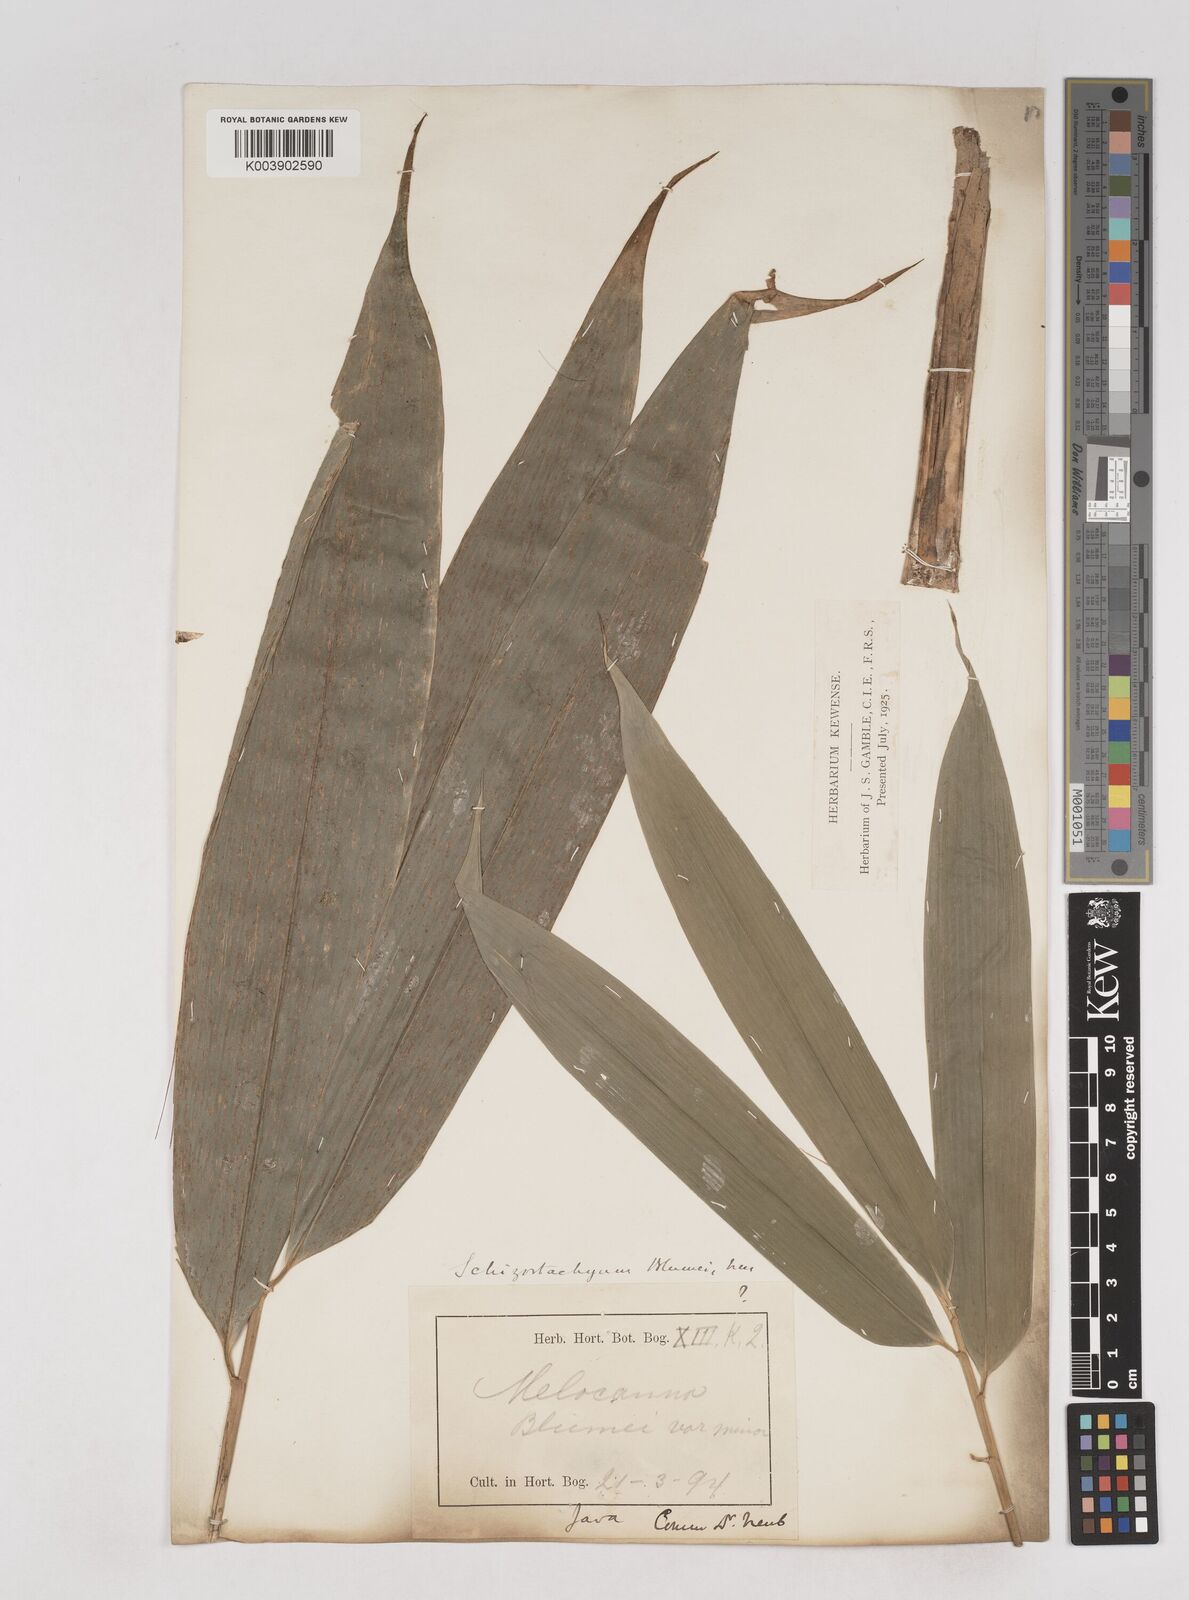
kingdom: Plantae
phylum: Tracheophyta
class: Liliopsida
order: Poales
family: Poaceae
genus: Schizostachyum
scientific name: Schizostachyum
